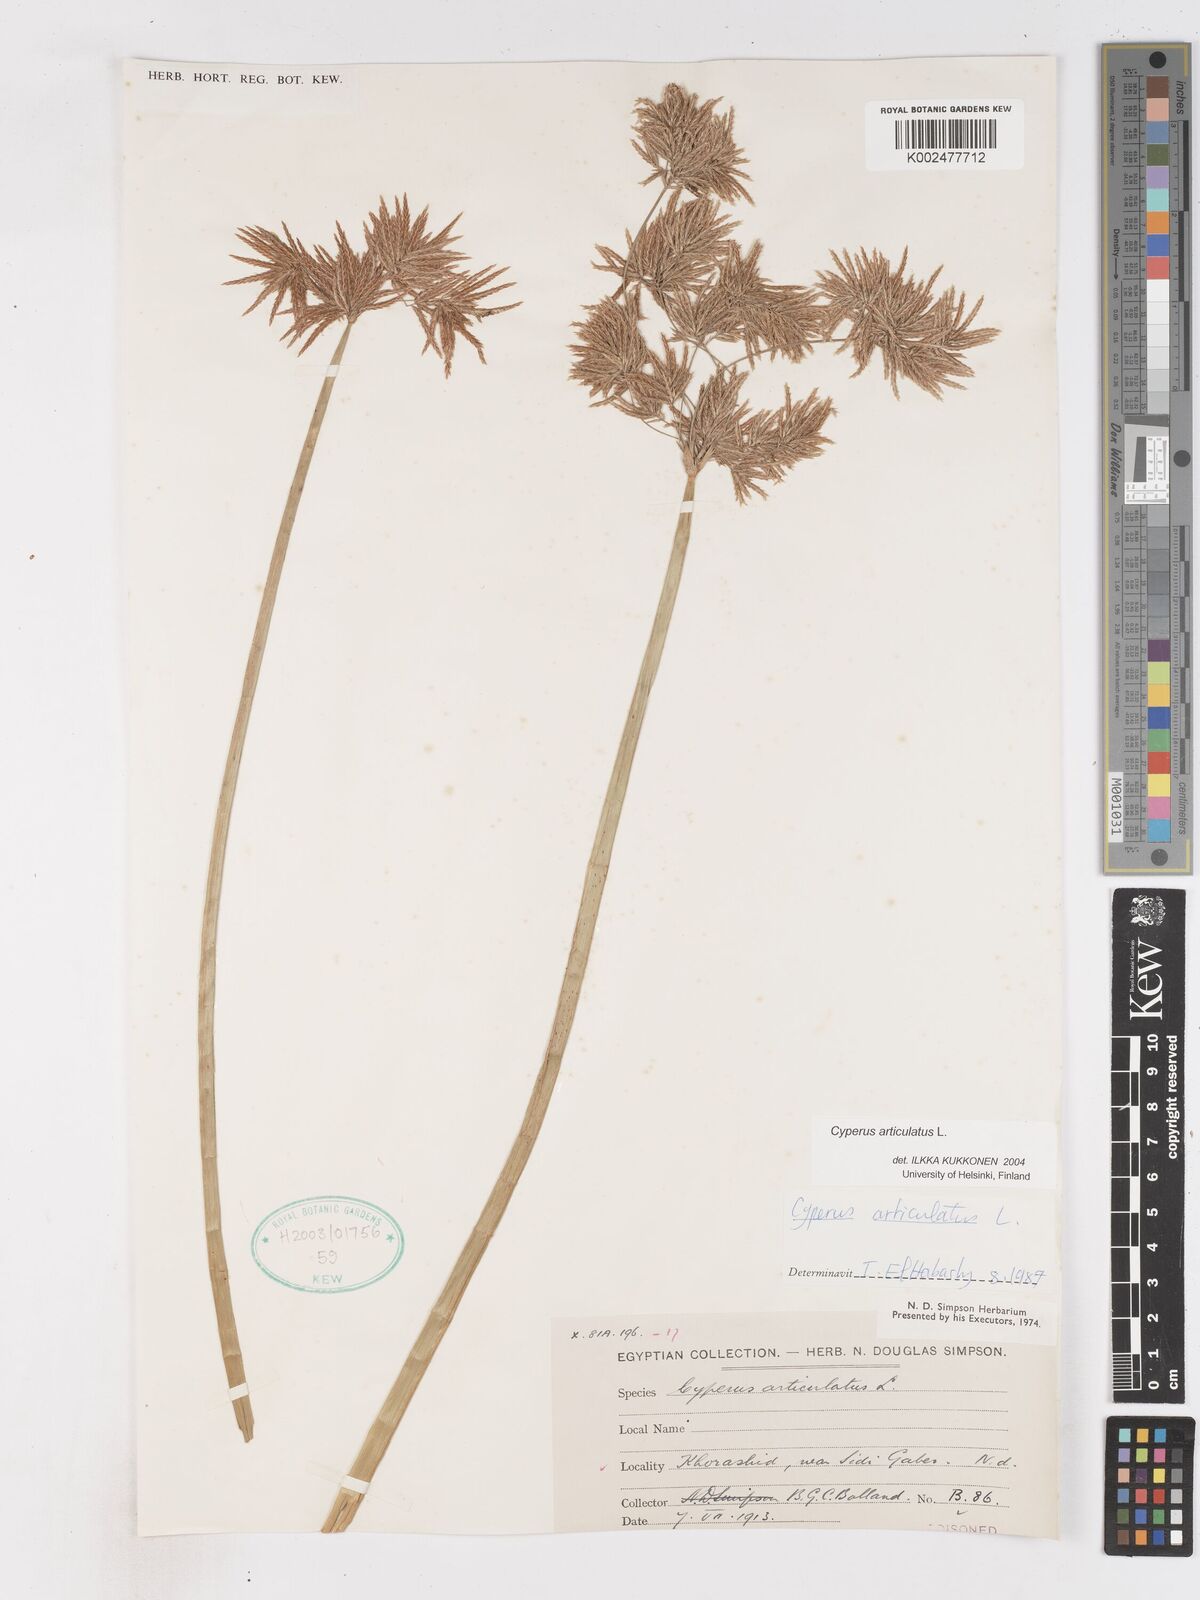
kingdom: Plantae
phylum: Tracheophyta
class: Liliopsida
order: Poales
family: Cyperaceae
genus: Cyperus
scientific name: Cyperus articulatus
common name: Jointed flatsedge
